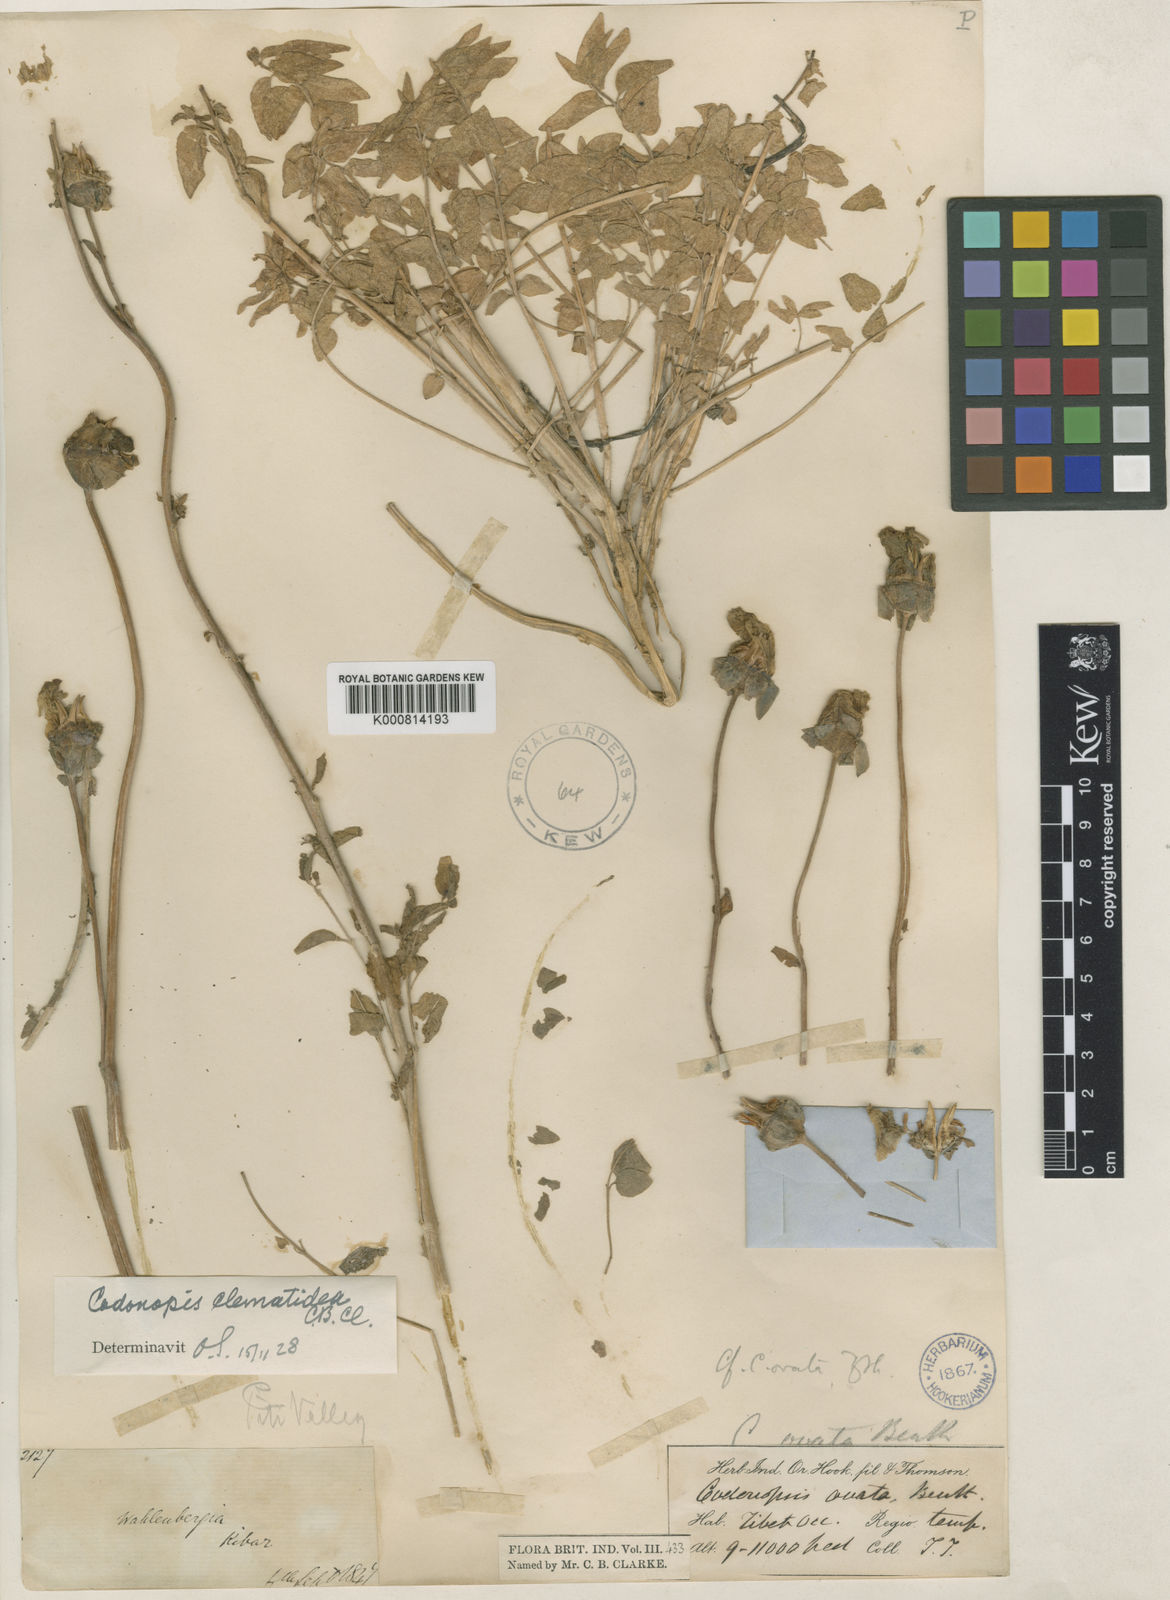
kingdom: Plantae
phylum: Tracheophyta
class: Magnoliopsida
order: Asterales
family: Campanulaceae
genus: Codonopsis
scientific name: Codonopsis clematidea
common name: Bonnet-bellflower
